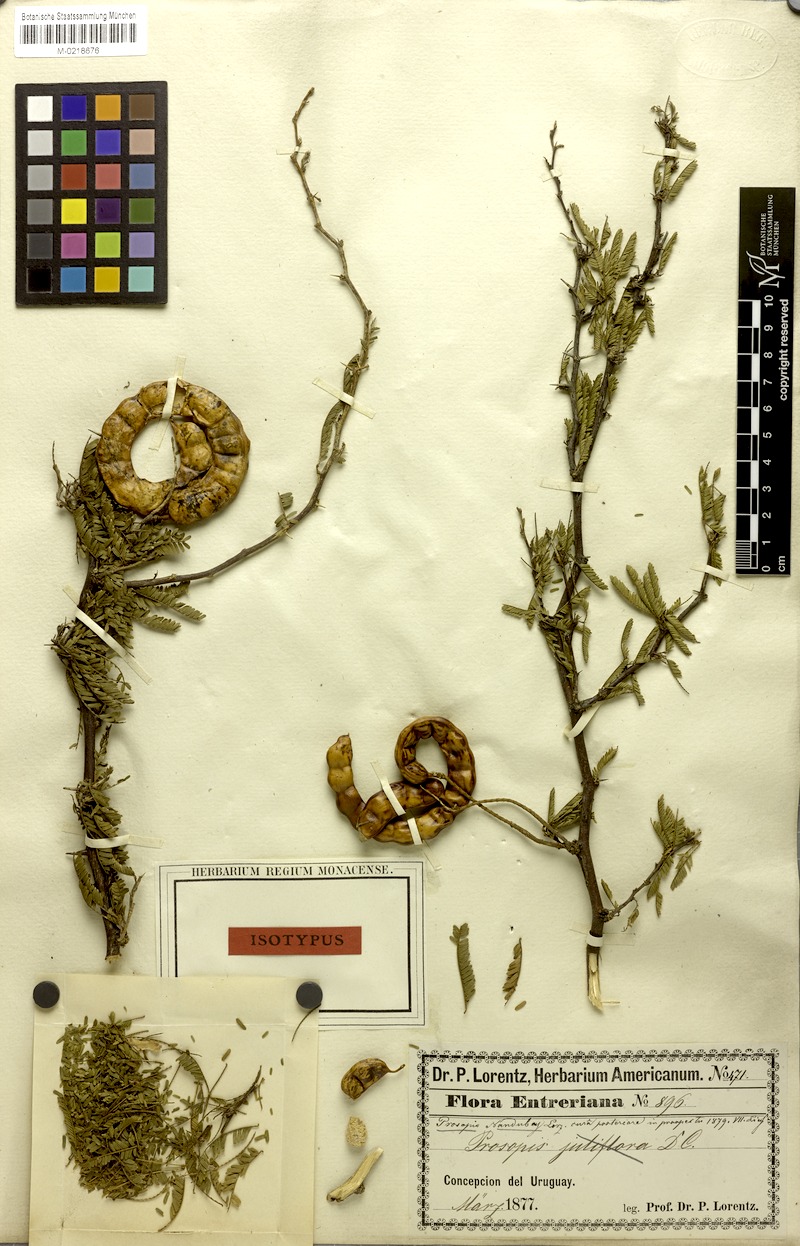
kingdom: Plantae
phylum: Tracheophyta
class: Magnoliopsida
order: Fabales
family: Fabaceae
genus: Prosopis
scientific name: Prosopis affinis
